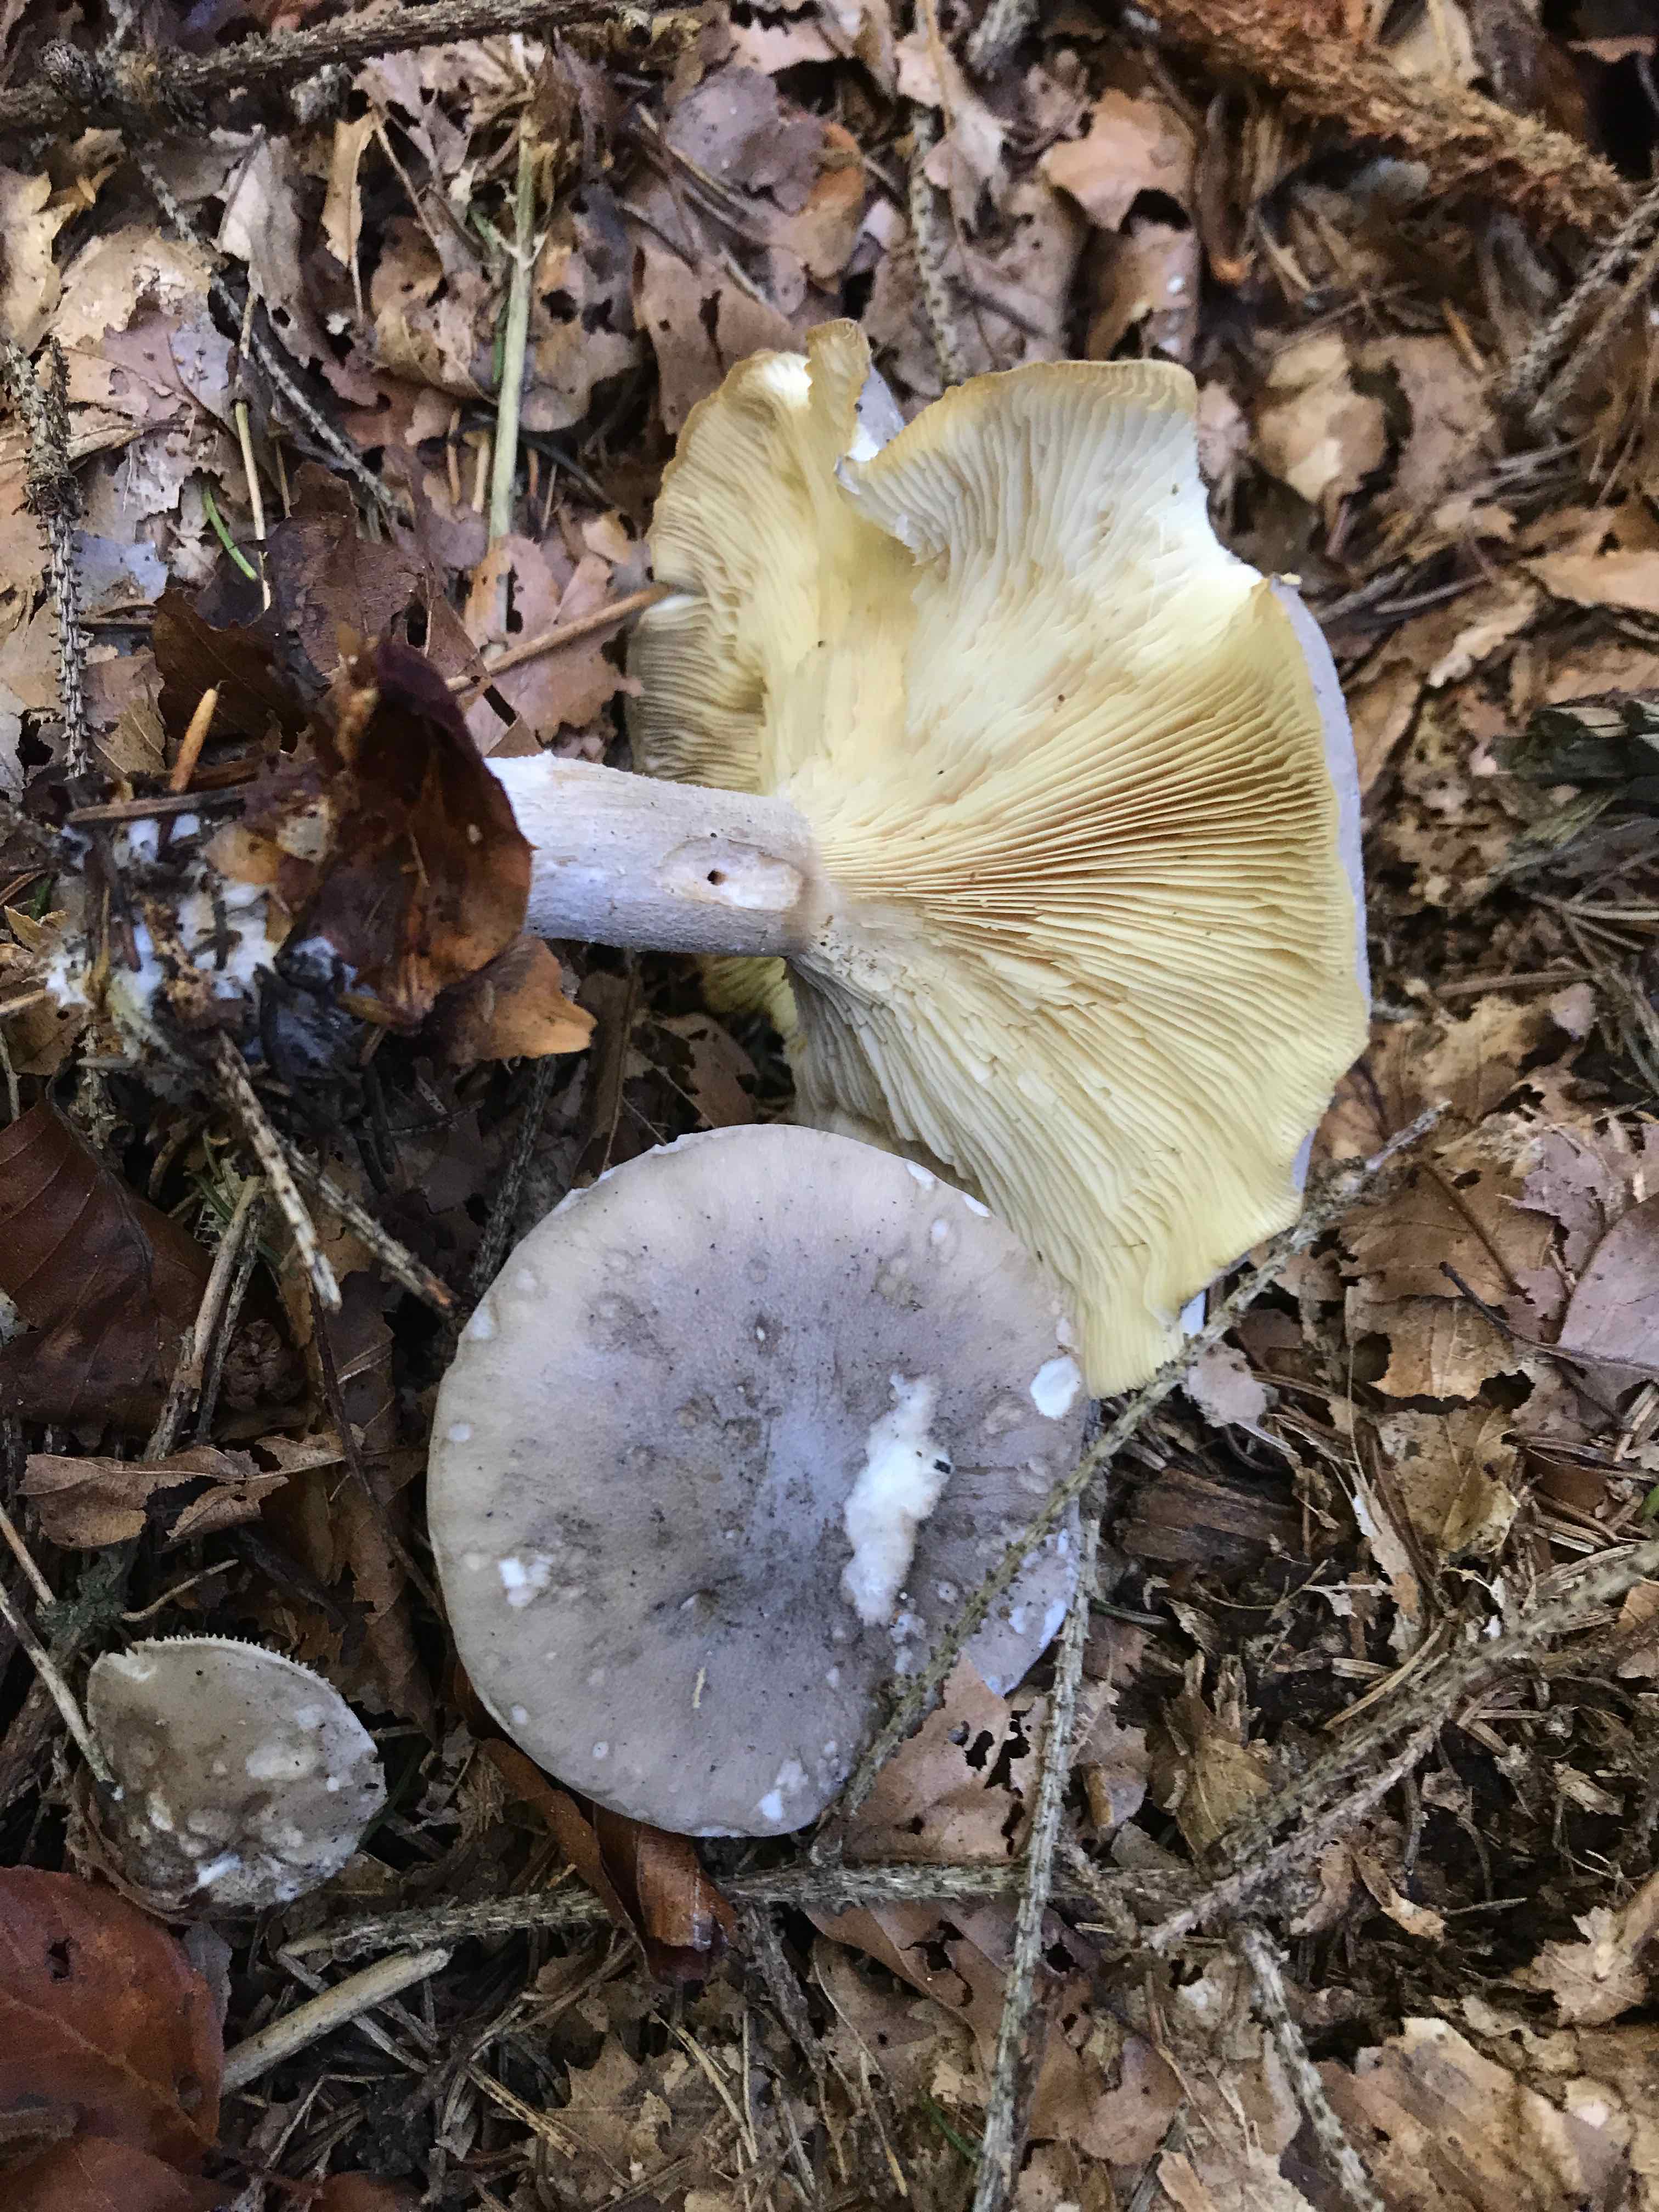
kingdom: Fungi
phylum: Basidiomycota
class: Agaricomycetes
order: Agaricales
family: Tricholomataceae
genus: Clitocybe
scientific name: Clitocybe nebularis
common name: tåge-tragthat
